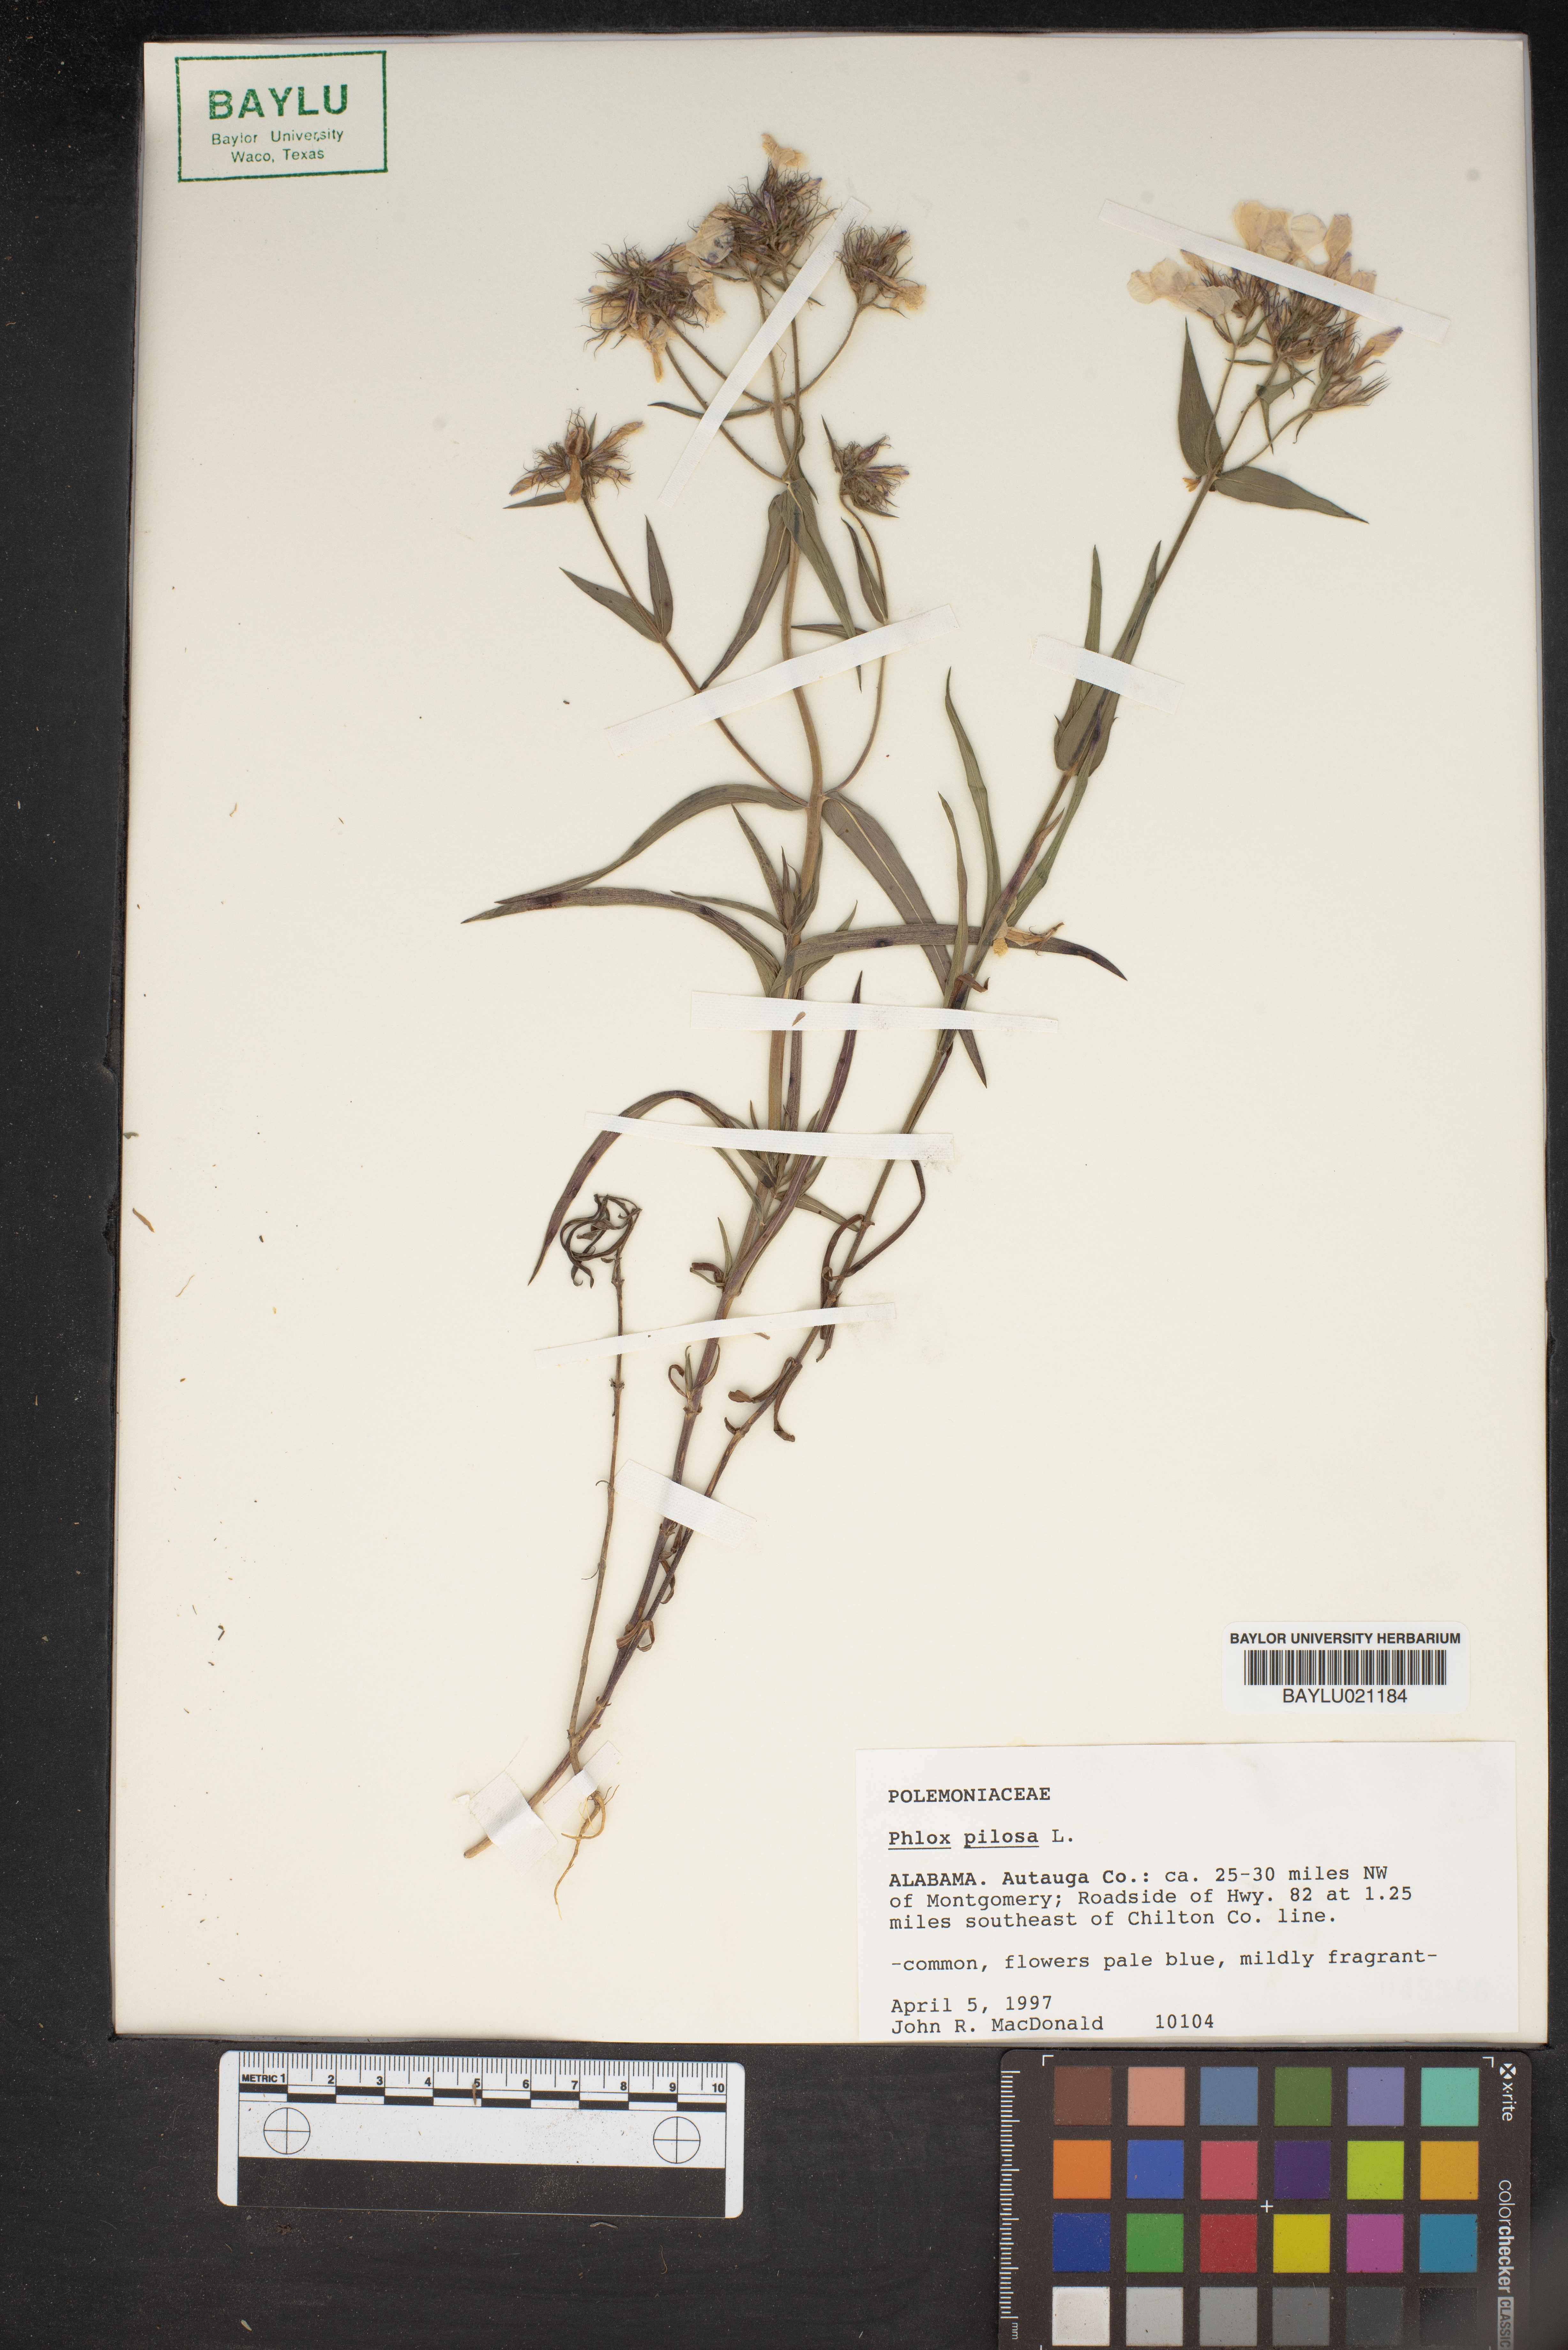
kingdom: Plantae
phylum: Tracheophyta
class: Magnoliopsida
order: Ericales
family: Polemoniaceae
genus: Phlox
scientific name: Phlox pilosa
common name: Prairie phlox
